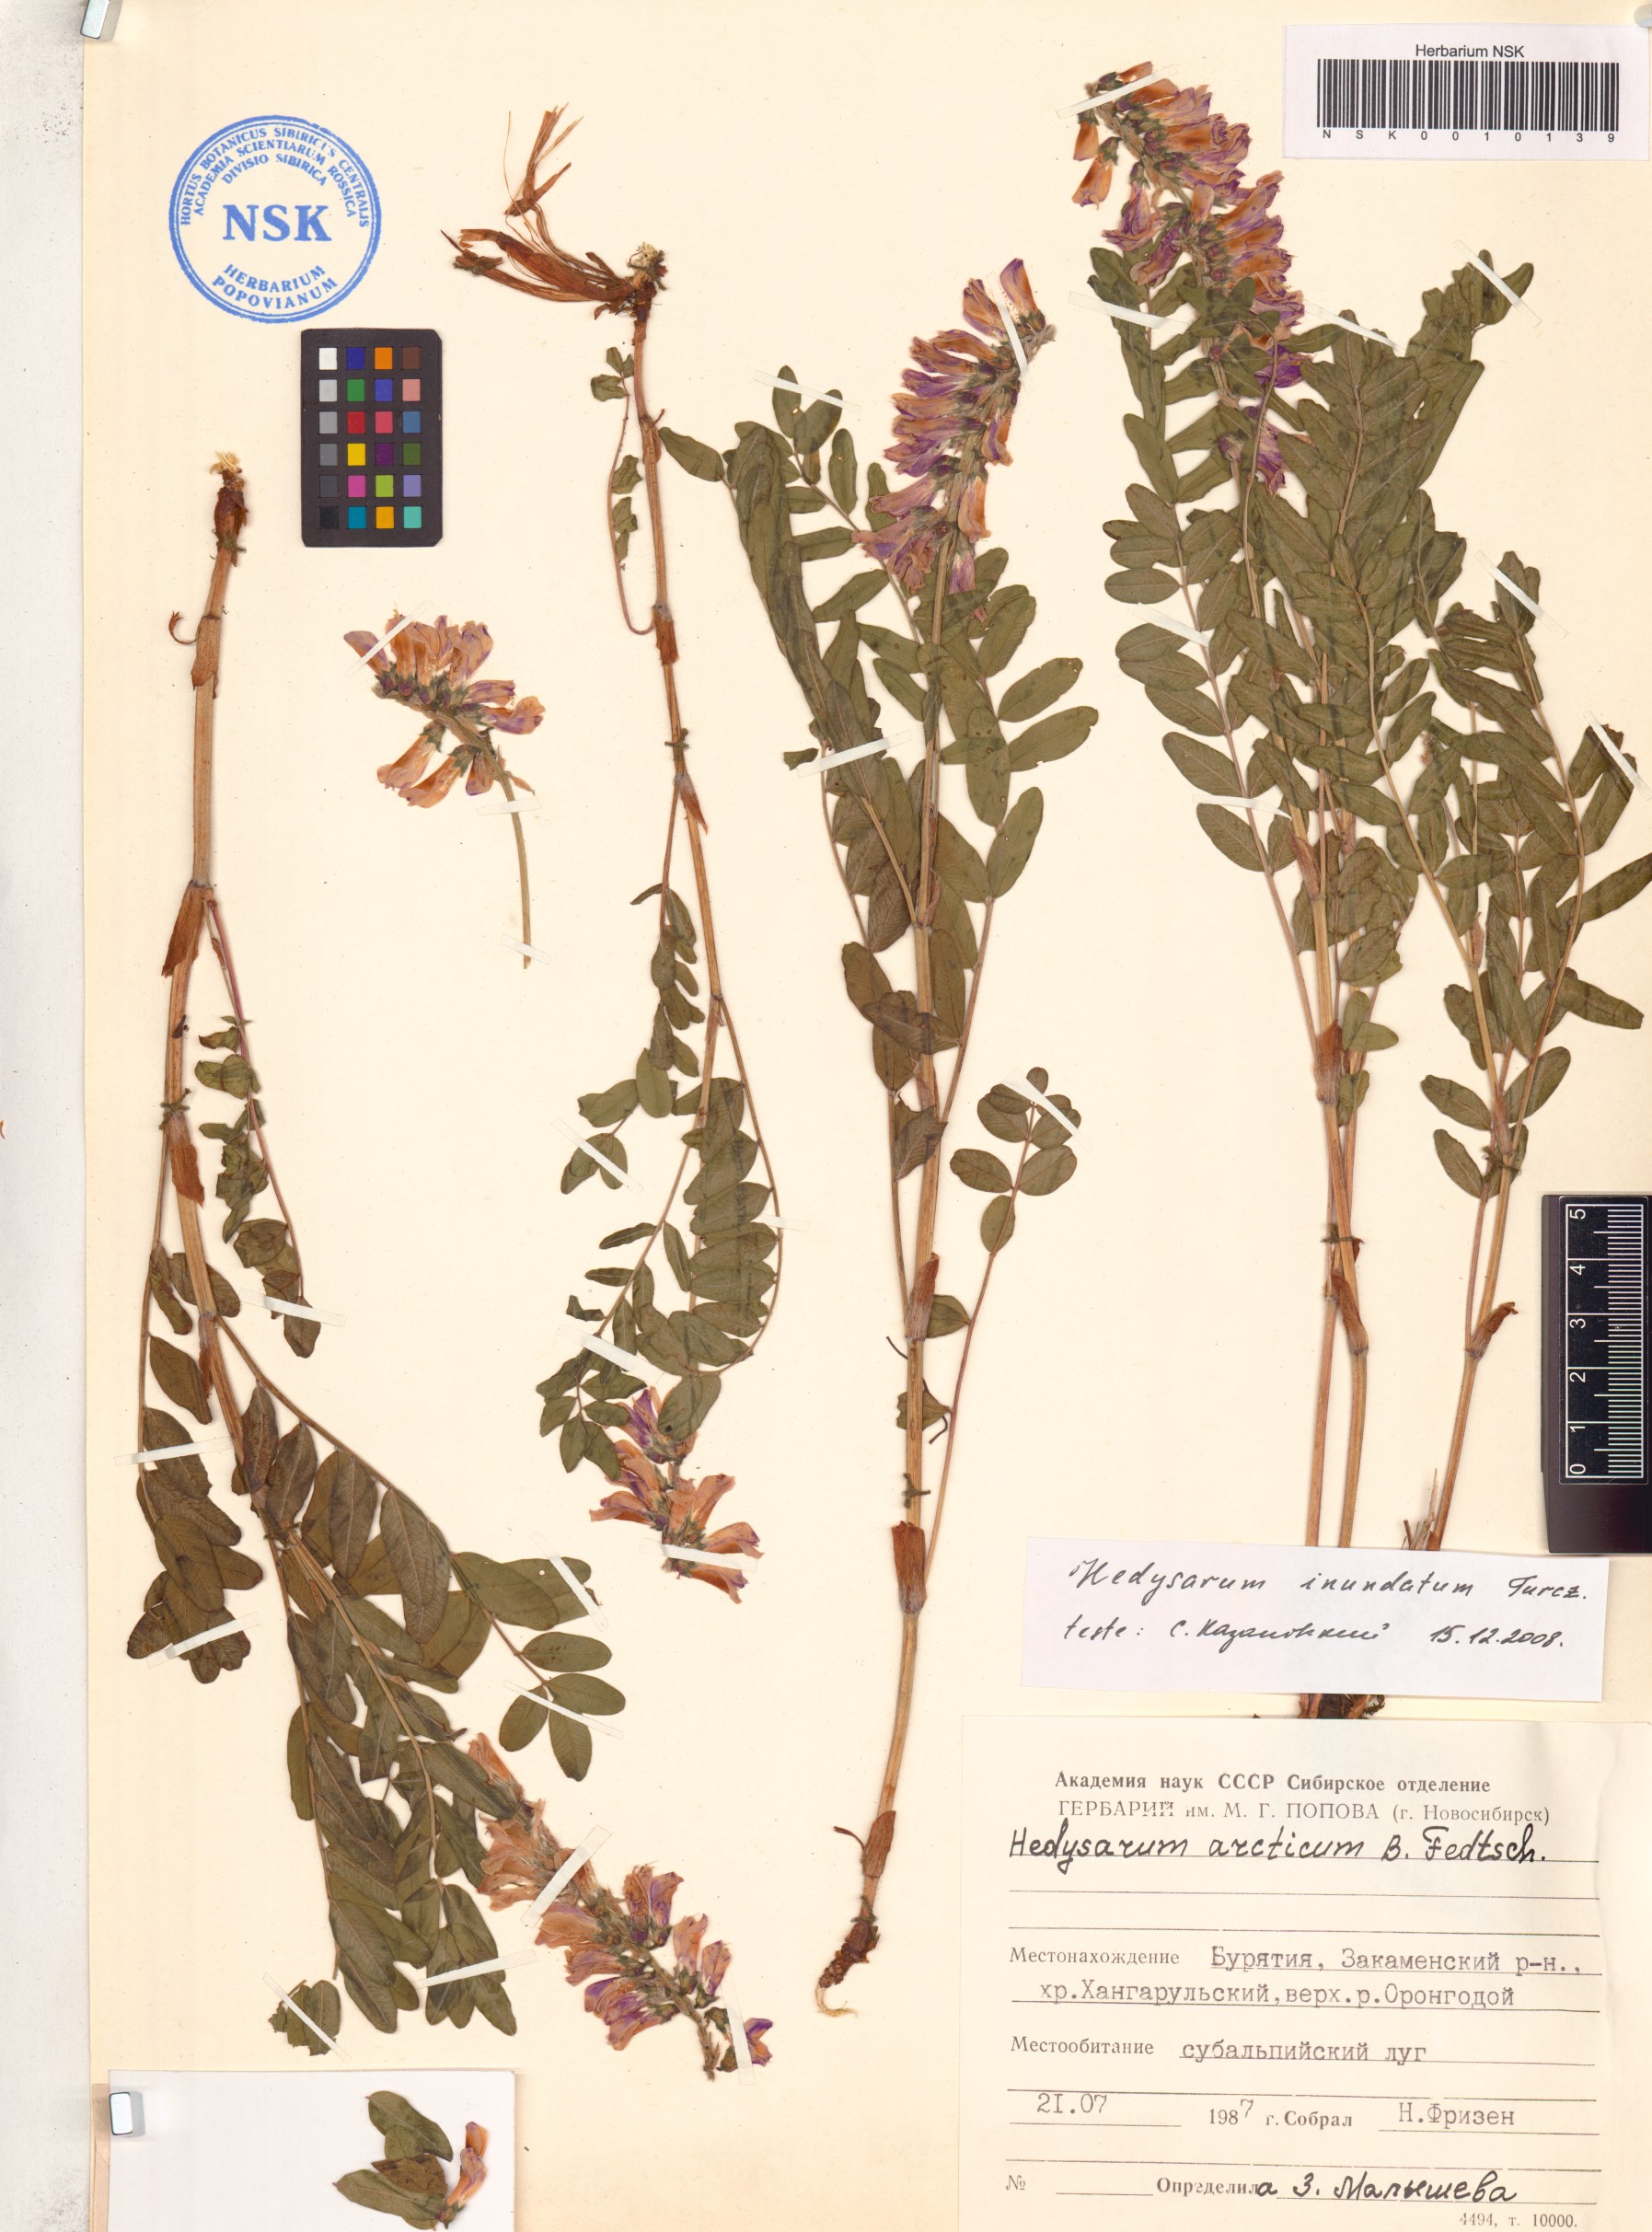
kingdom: Plantae
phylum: Tracheophyta
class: Magnoliopsida
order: Fabales
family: Fabaceae
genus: Hedysarum
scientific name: Hedysarum inundatum
